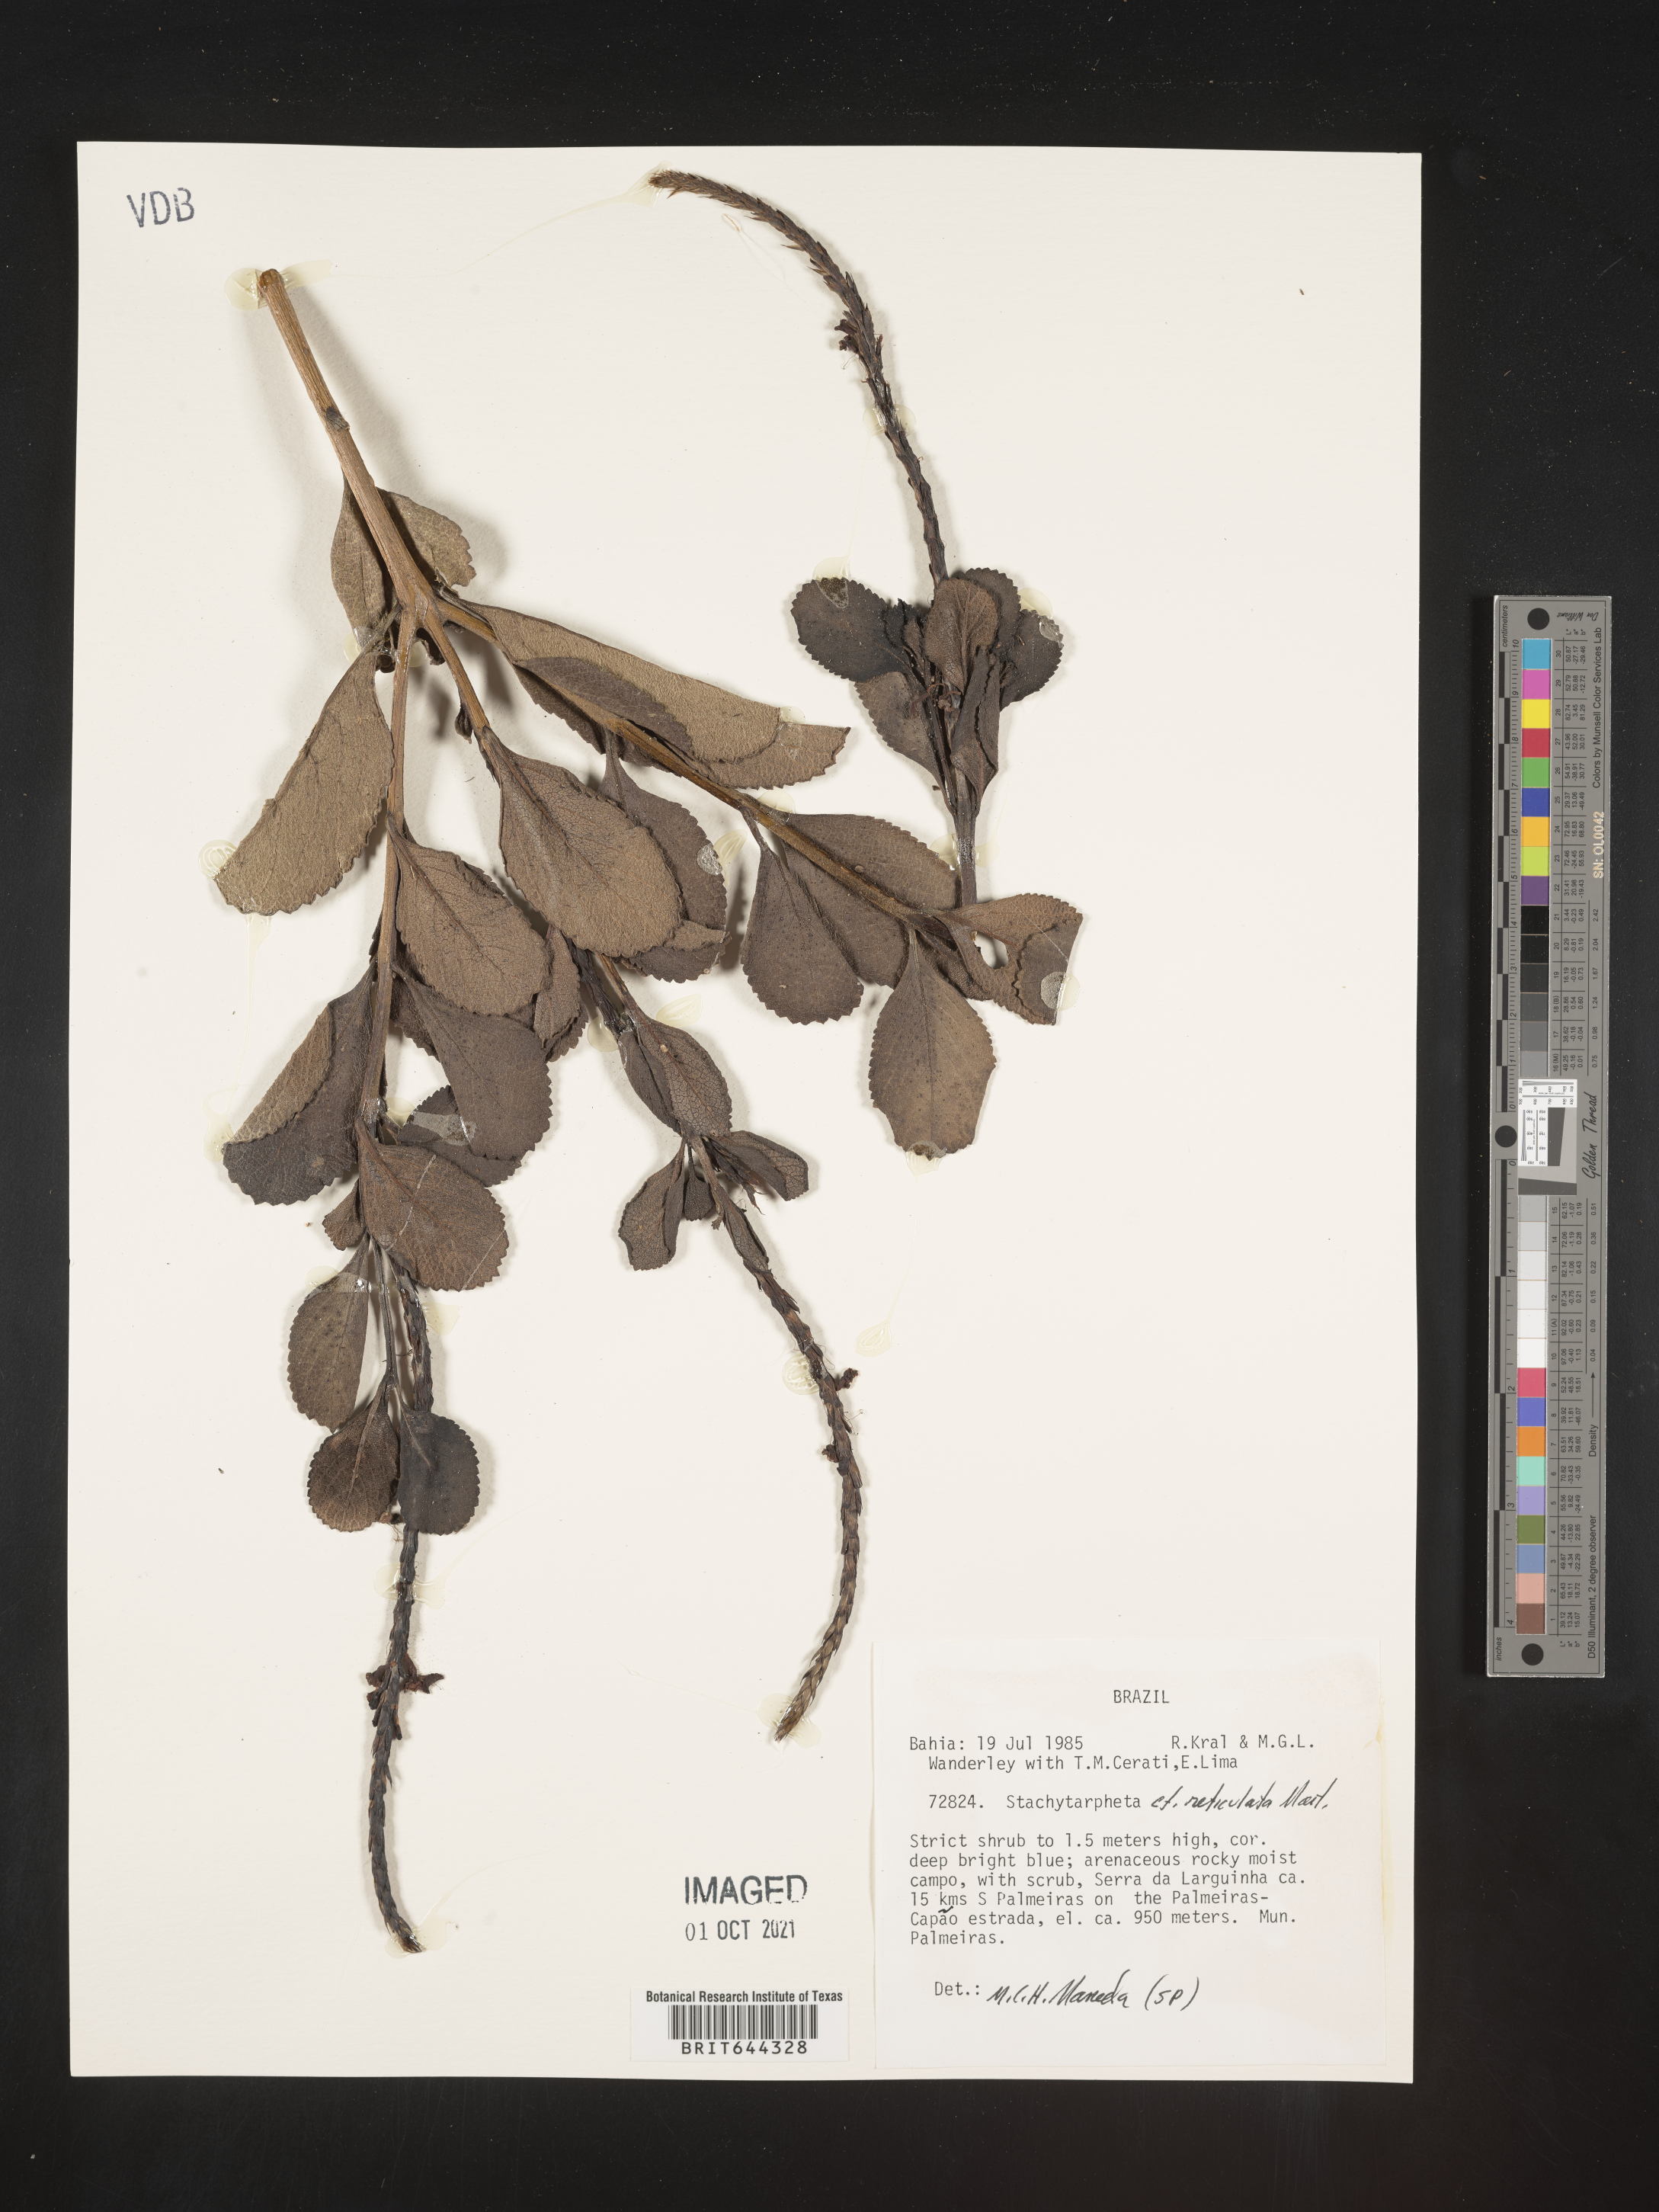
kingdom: Plantae
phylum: Tracheophyta
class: Magnoliopsida
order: Lamiales
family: Verbenaceae
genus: Stachytarpheta
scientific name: Stachytarpheta
